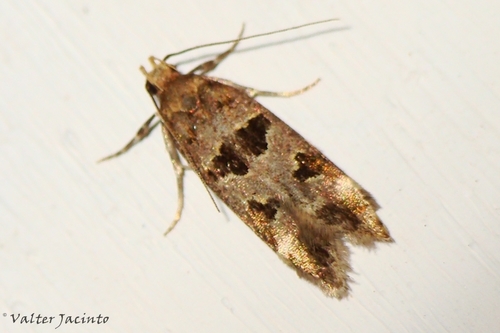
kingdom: Animalia
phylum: Arthropoda
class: Insecta
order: Lepidoptera
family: Gelechiidae
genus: Mirificarma
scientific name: Mirificarma denotata
